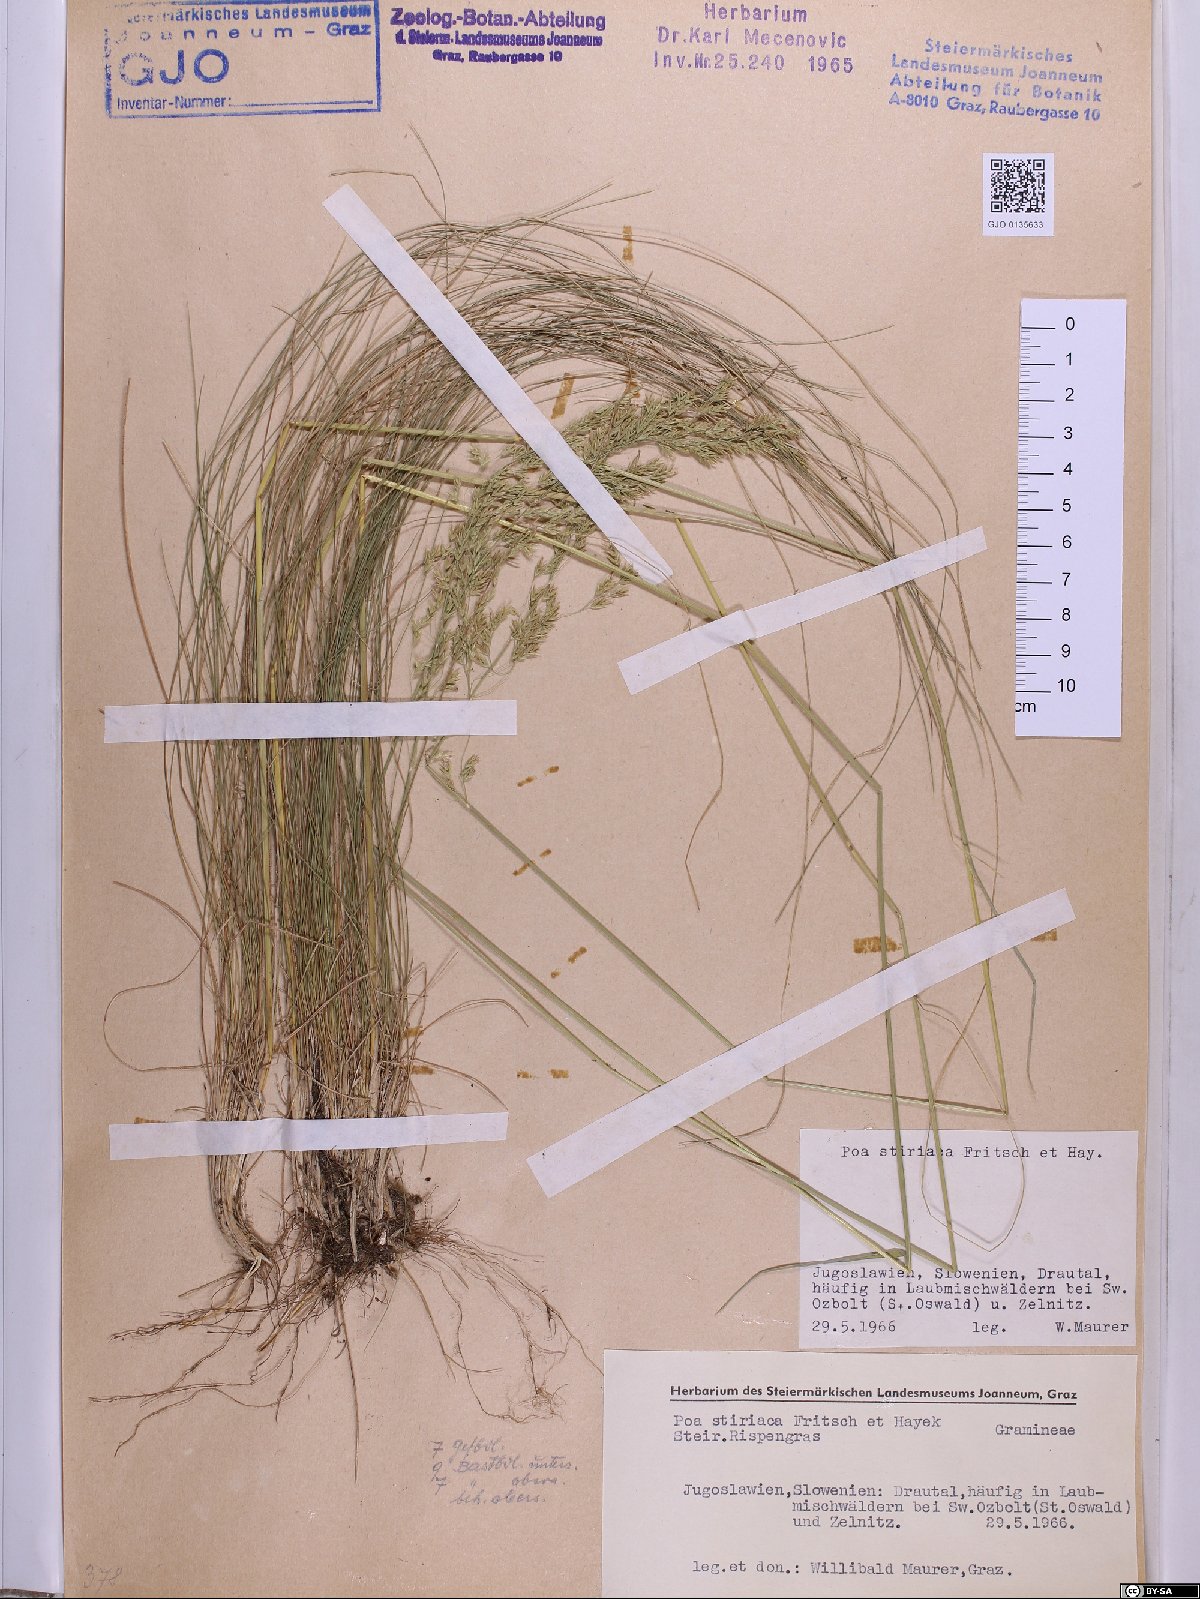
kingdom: Plantae
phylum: Tracheophyta
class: Liliopsida
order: Poales
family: Poaceae
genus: Poa
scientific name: Poa stiriaca
